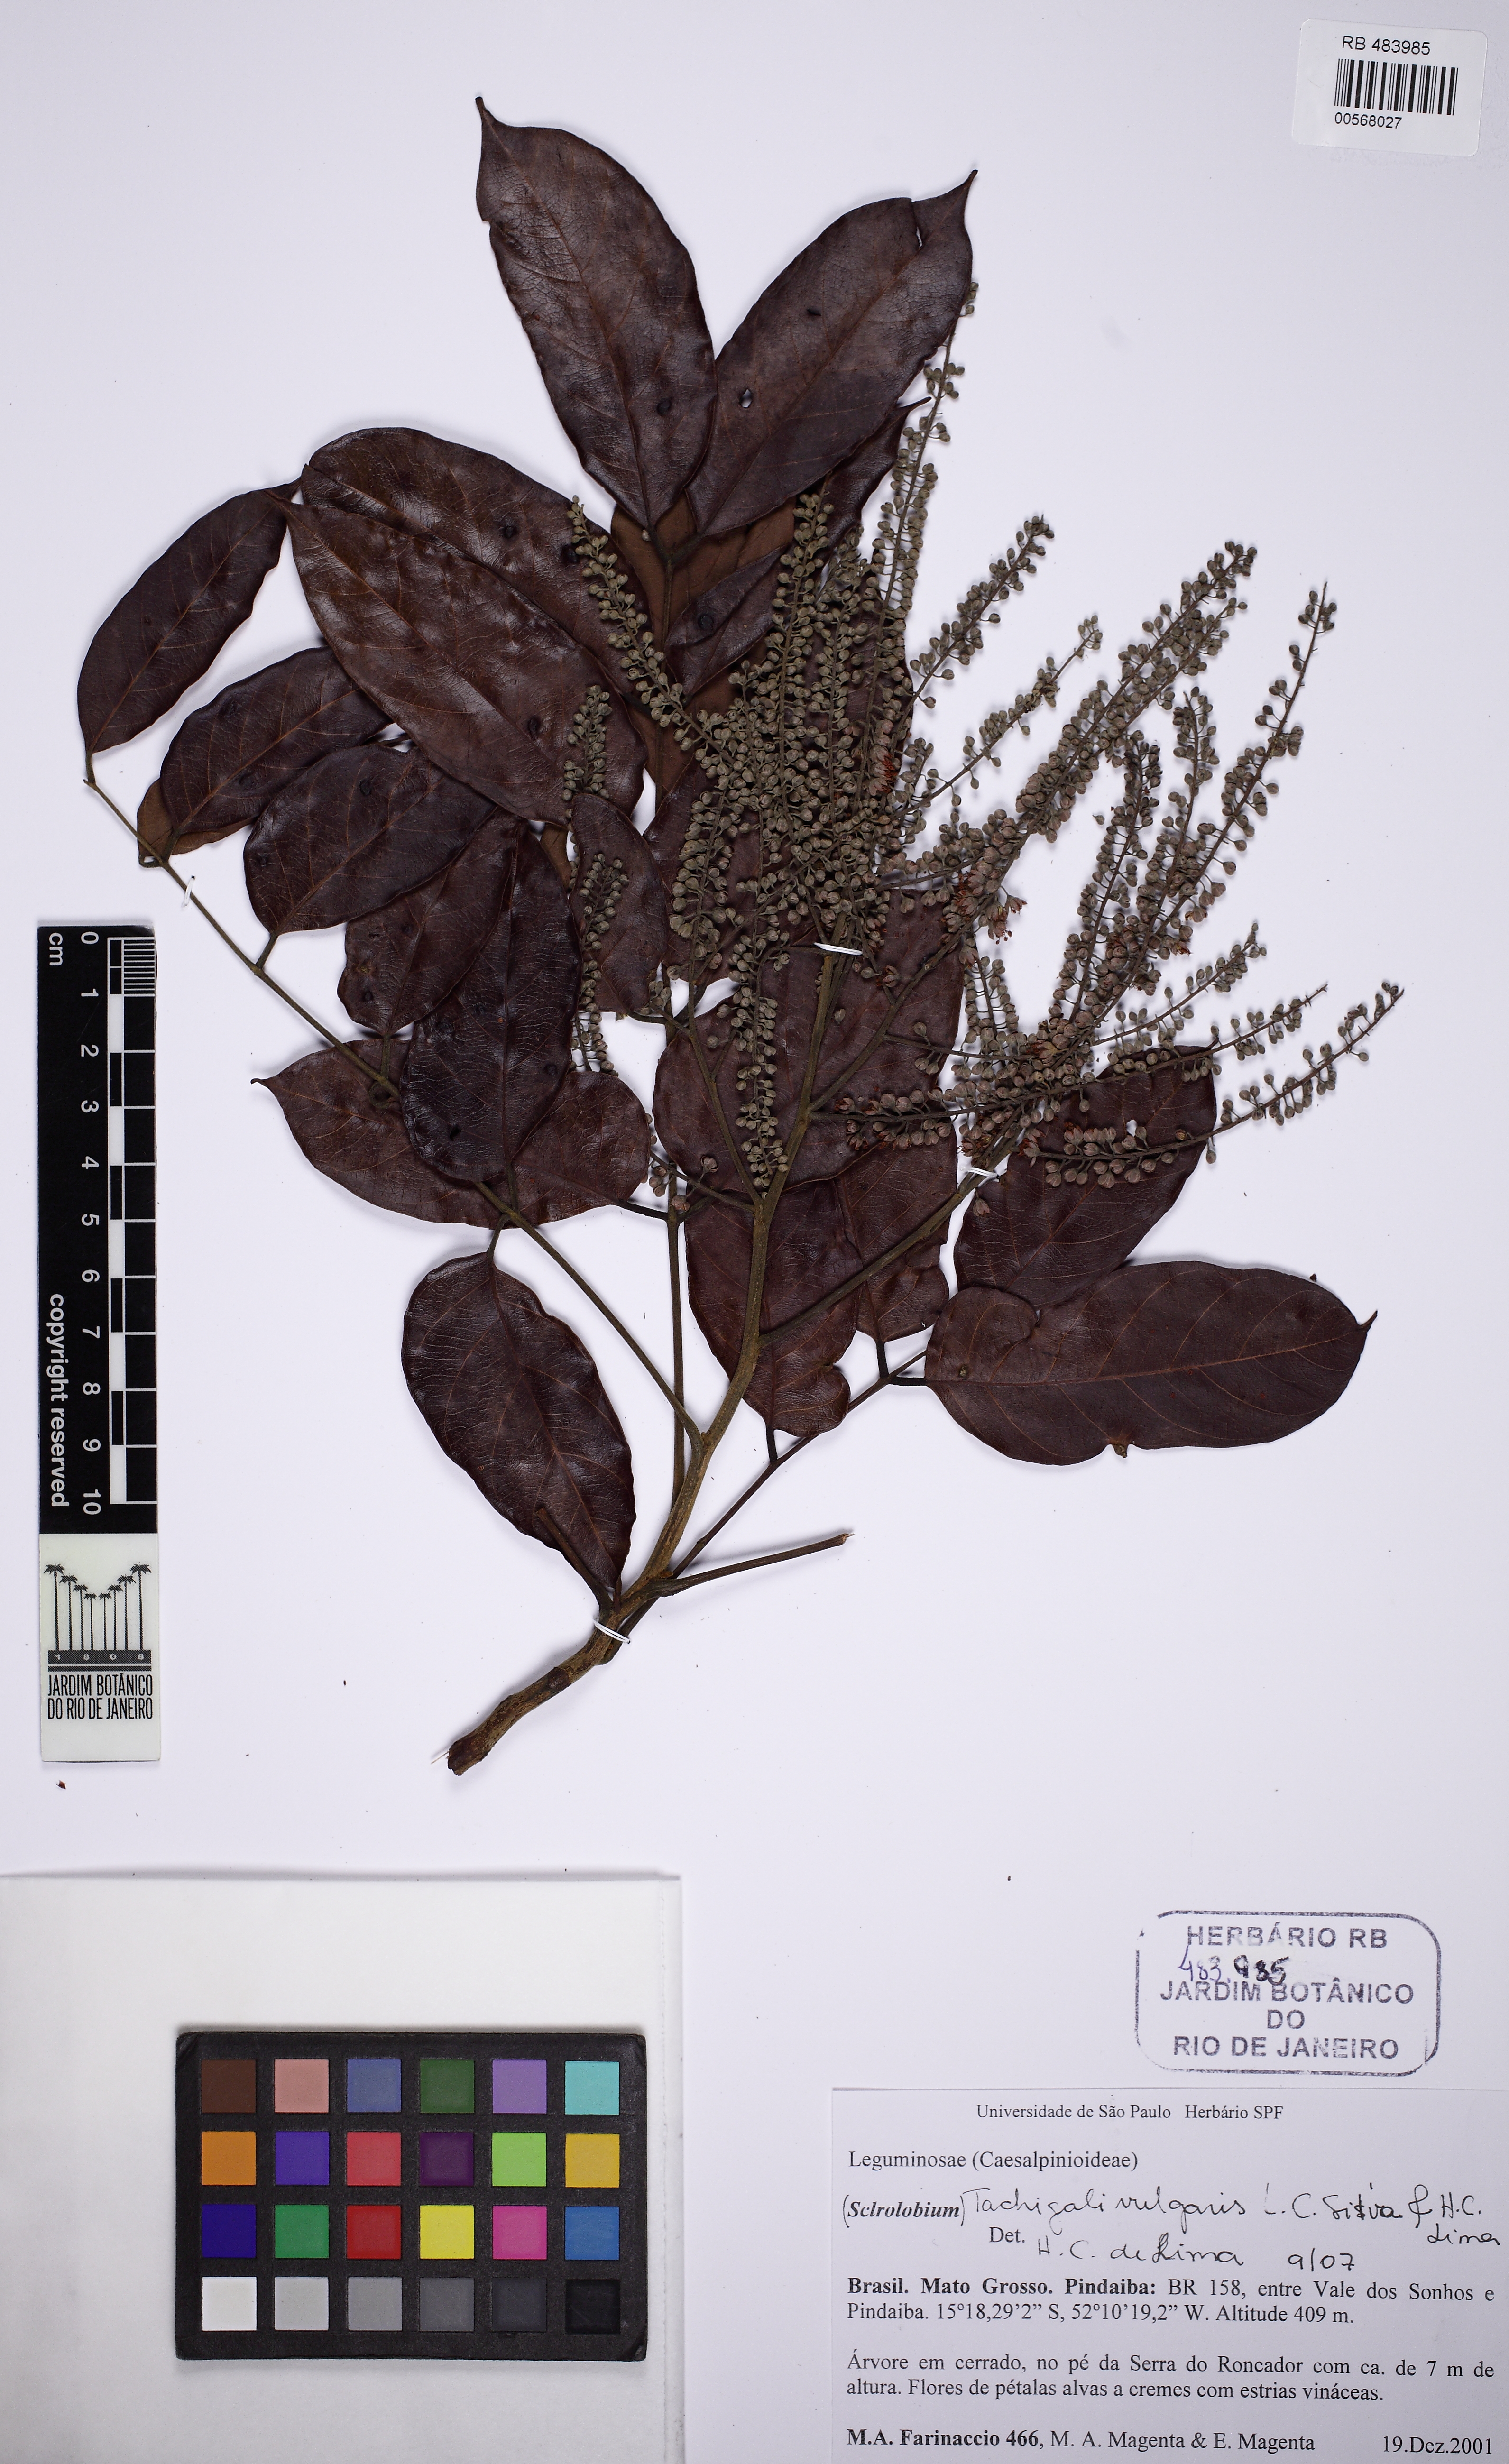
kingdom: Plantae
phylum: Tracheophyta
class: Magnoliopsida
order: Fabales
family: Fabaceae
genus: Tachigali
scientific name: Tachigali vulgaris
